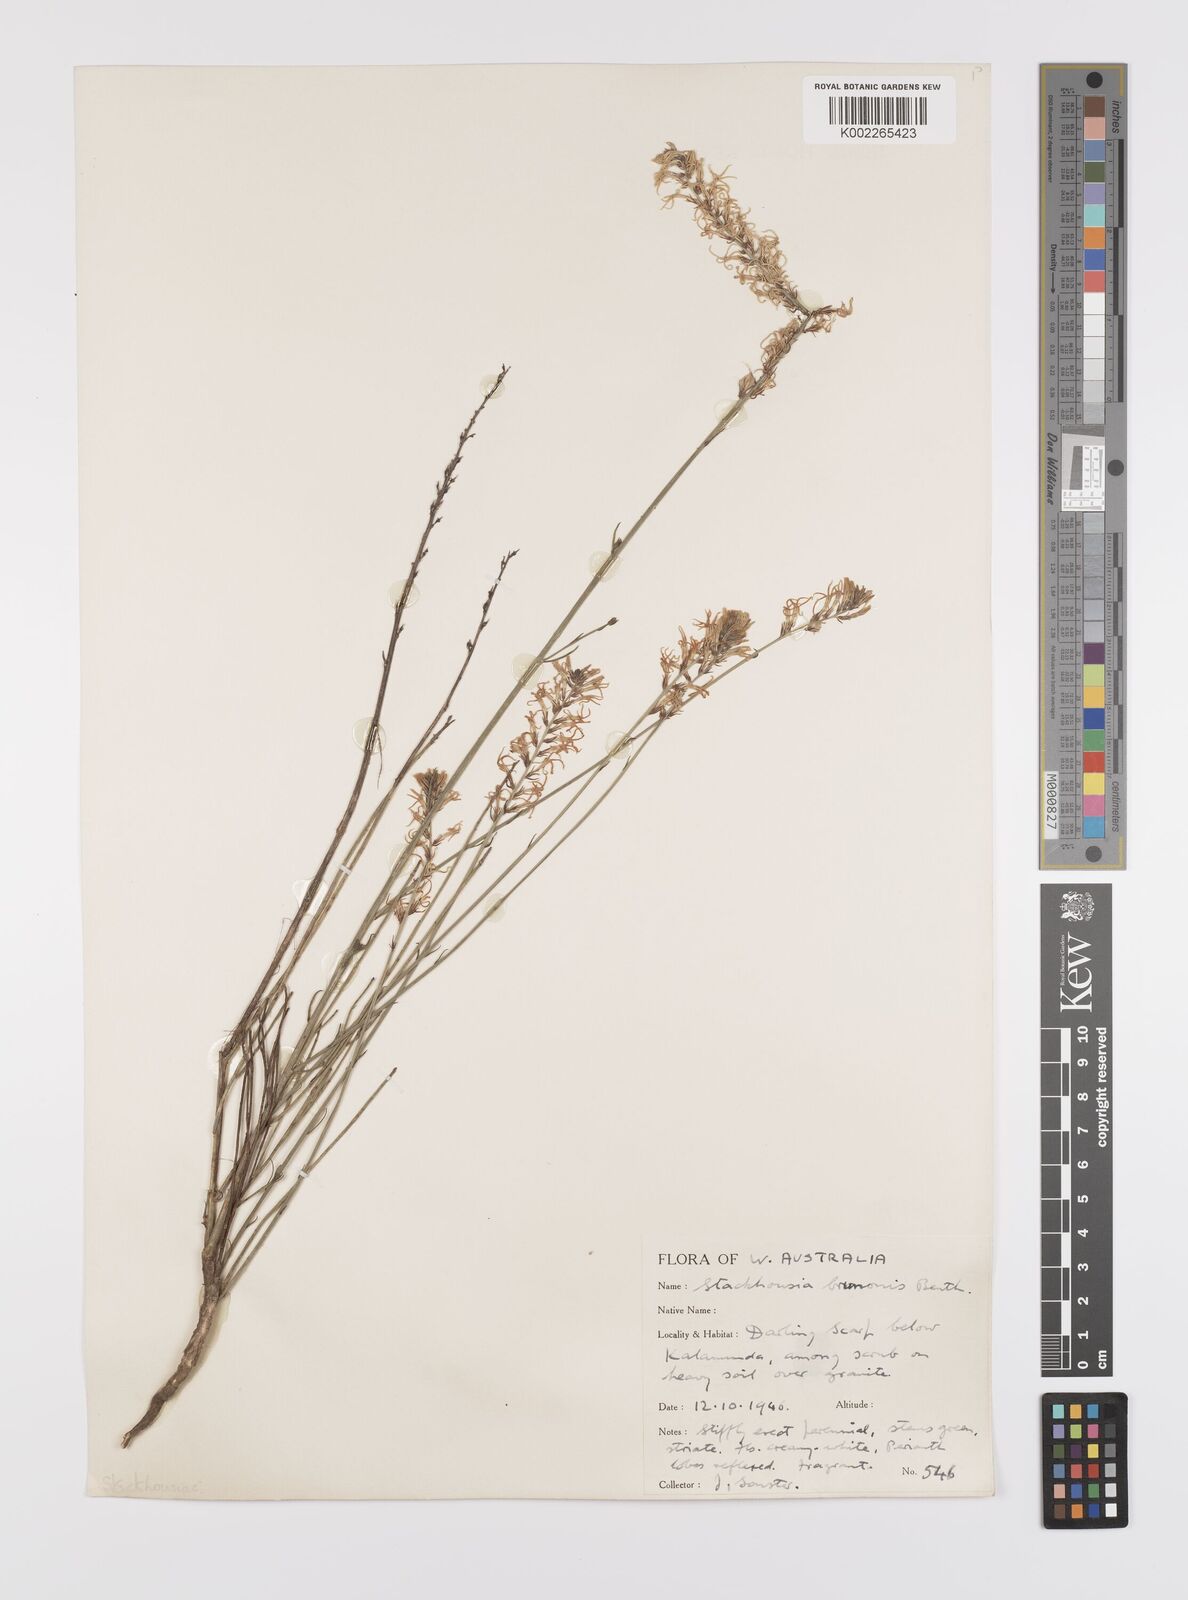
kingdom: Plantae
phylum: Tracheophyta
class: Magnoliopsida
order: Celastrales
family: Celastraceae
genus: Tripterococcus
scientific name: Tripterococcus brunonis
